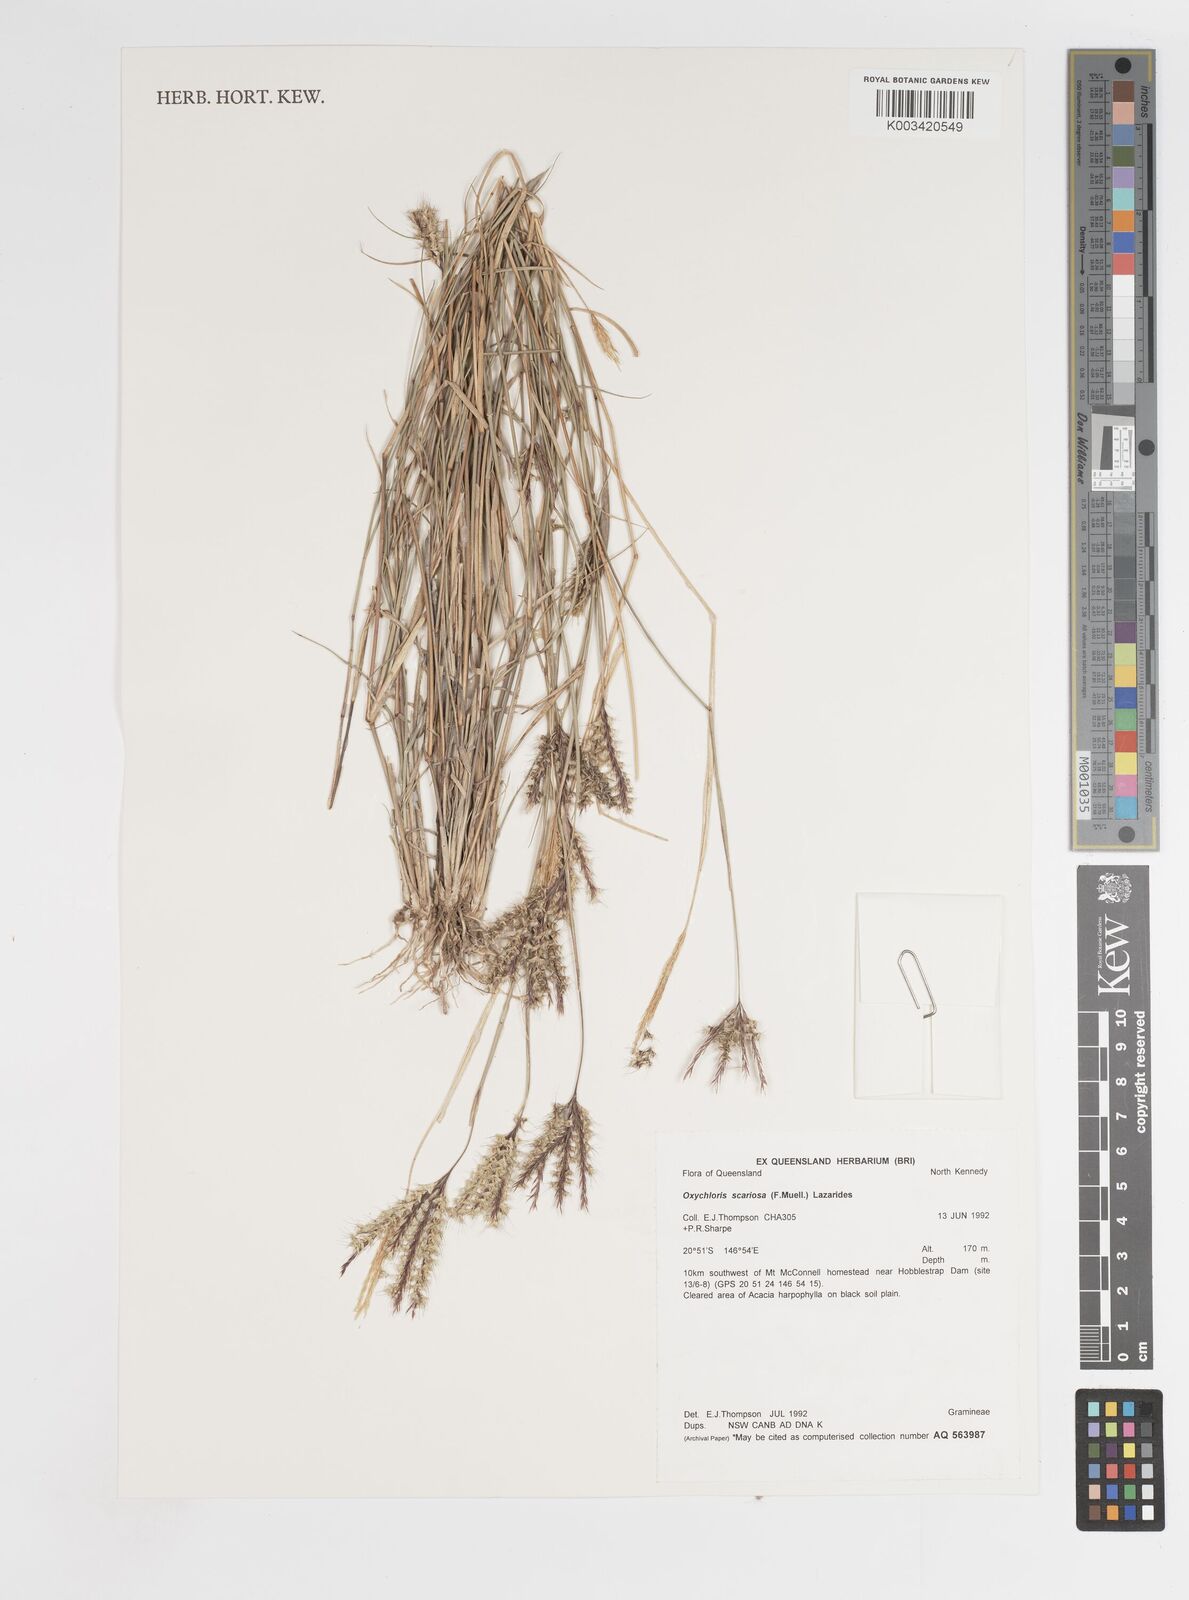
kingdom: Plantae
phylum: Tracheophyta
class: Liliopsida
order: Poales
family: Poaceae
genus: Oxychloris
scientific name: Oxychloris scariosa
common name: Winged windmill grass
